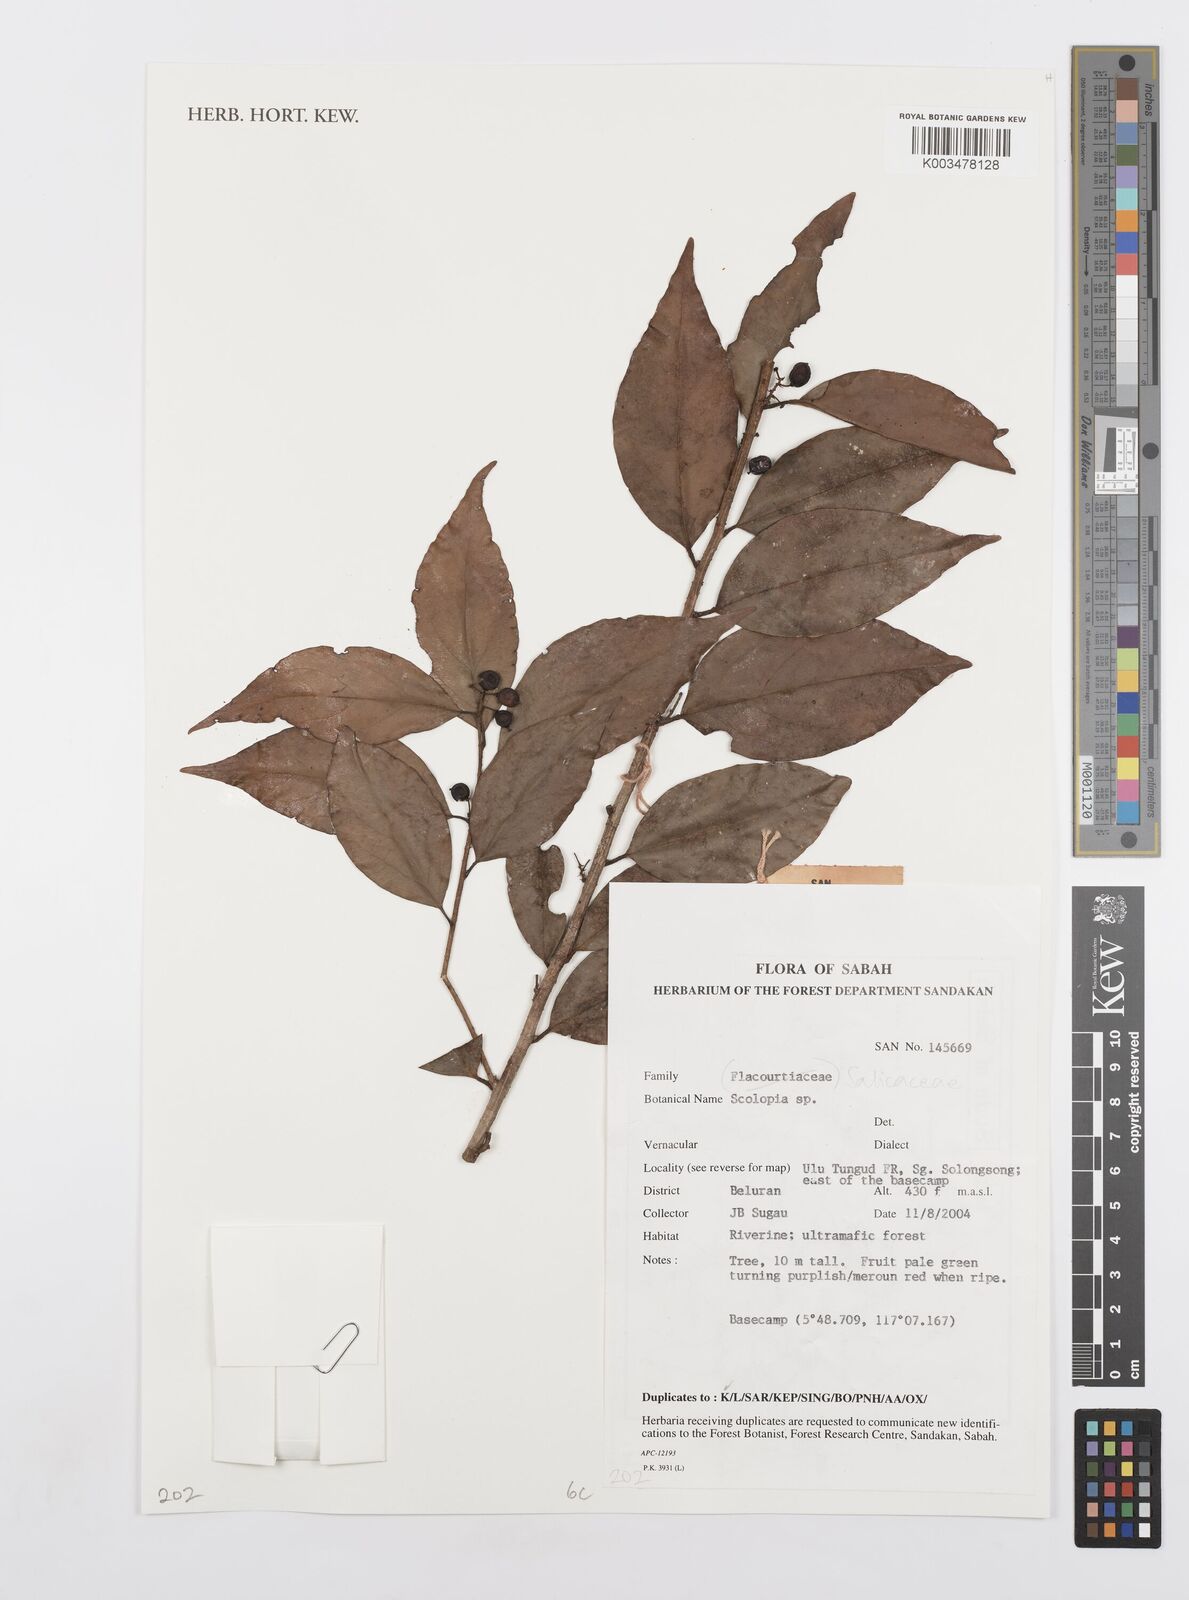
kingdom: Plantae
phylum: Tracheophyta
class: Magnoliopsida
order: Malpighiales
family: Salicaceae
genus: Scolopia
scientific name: Scolopia
